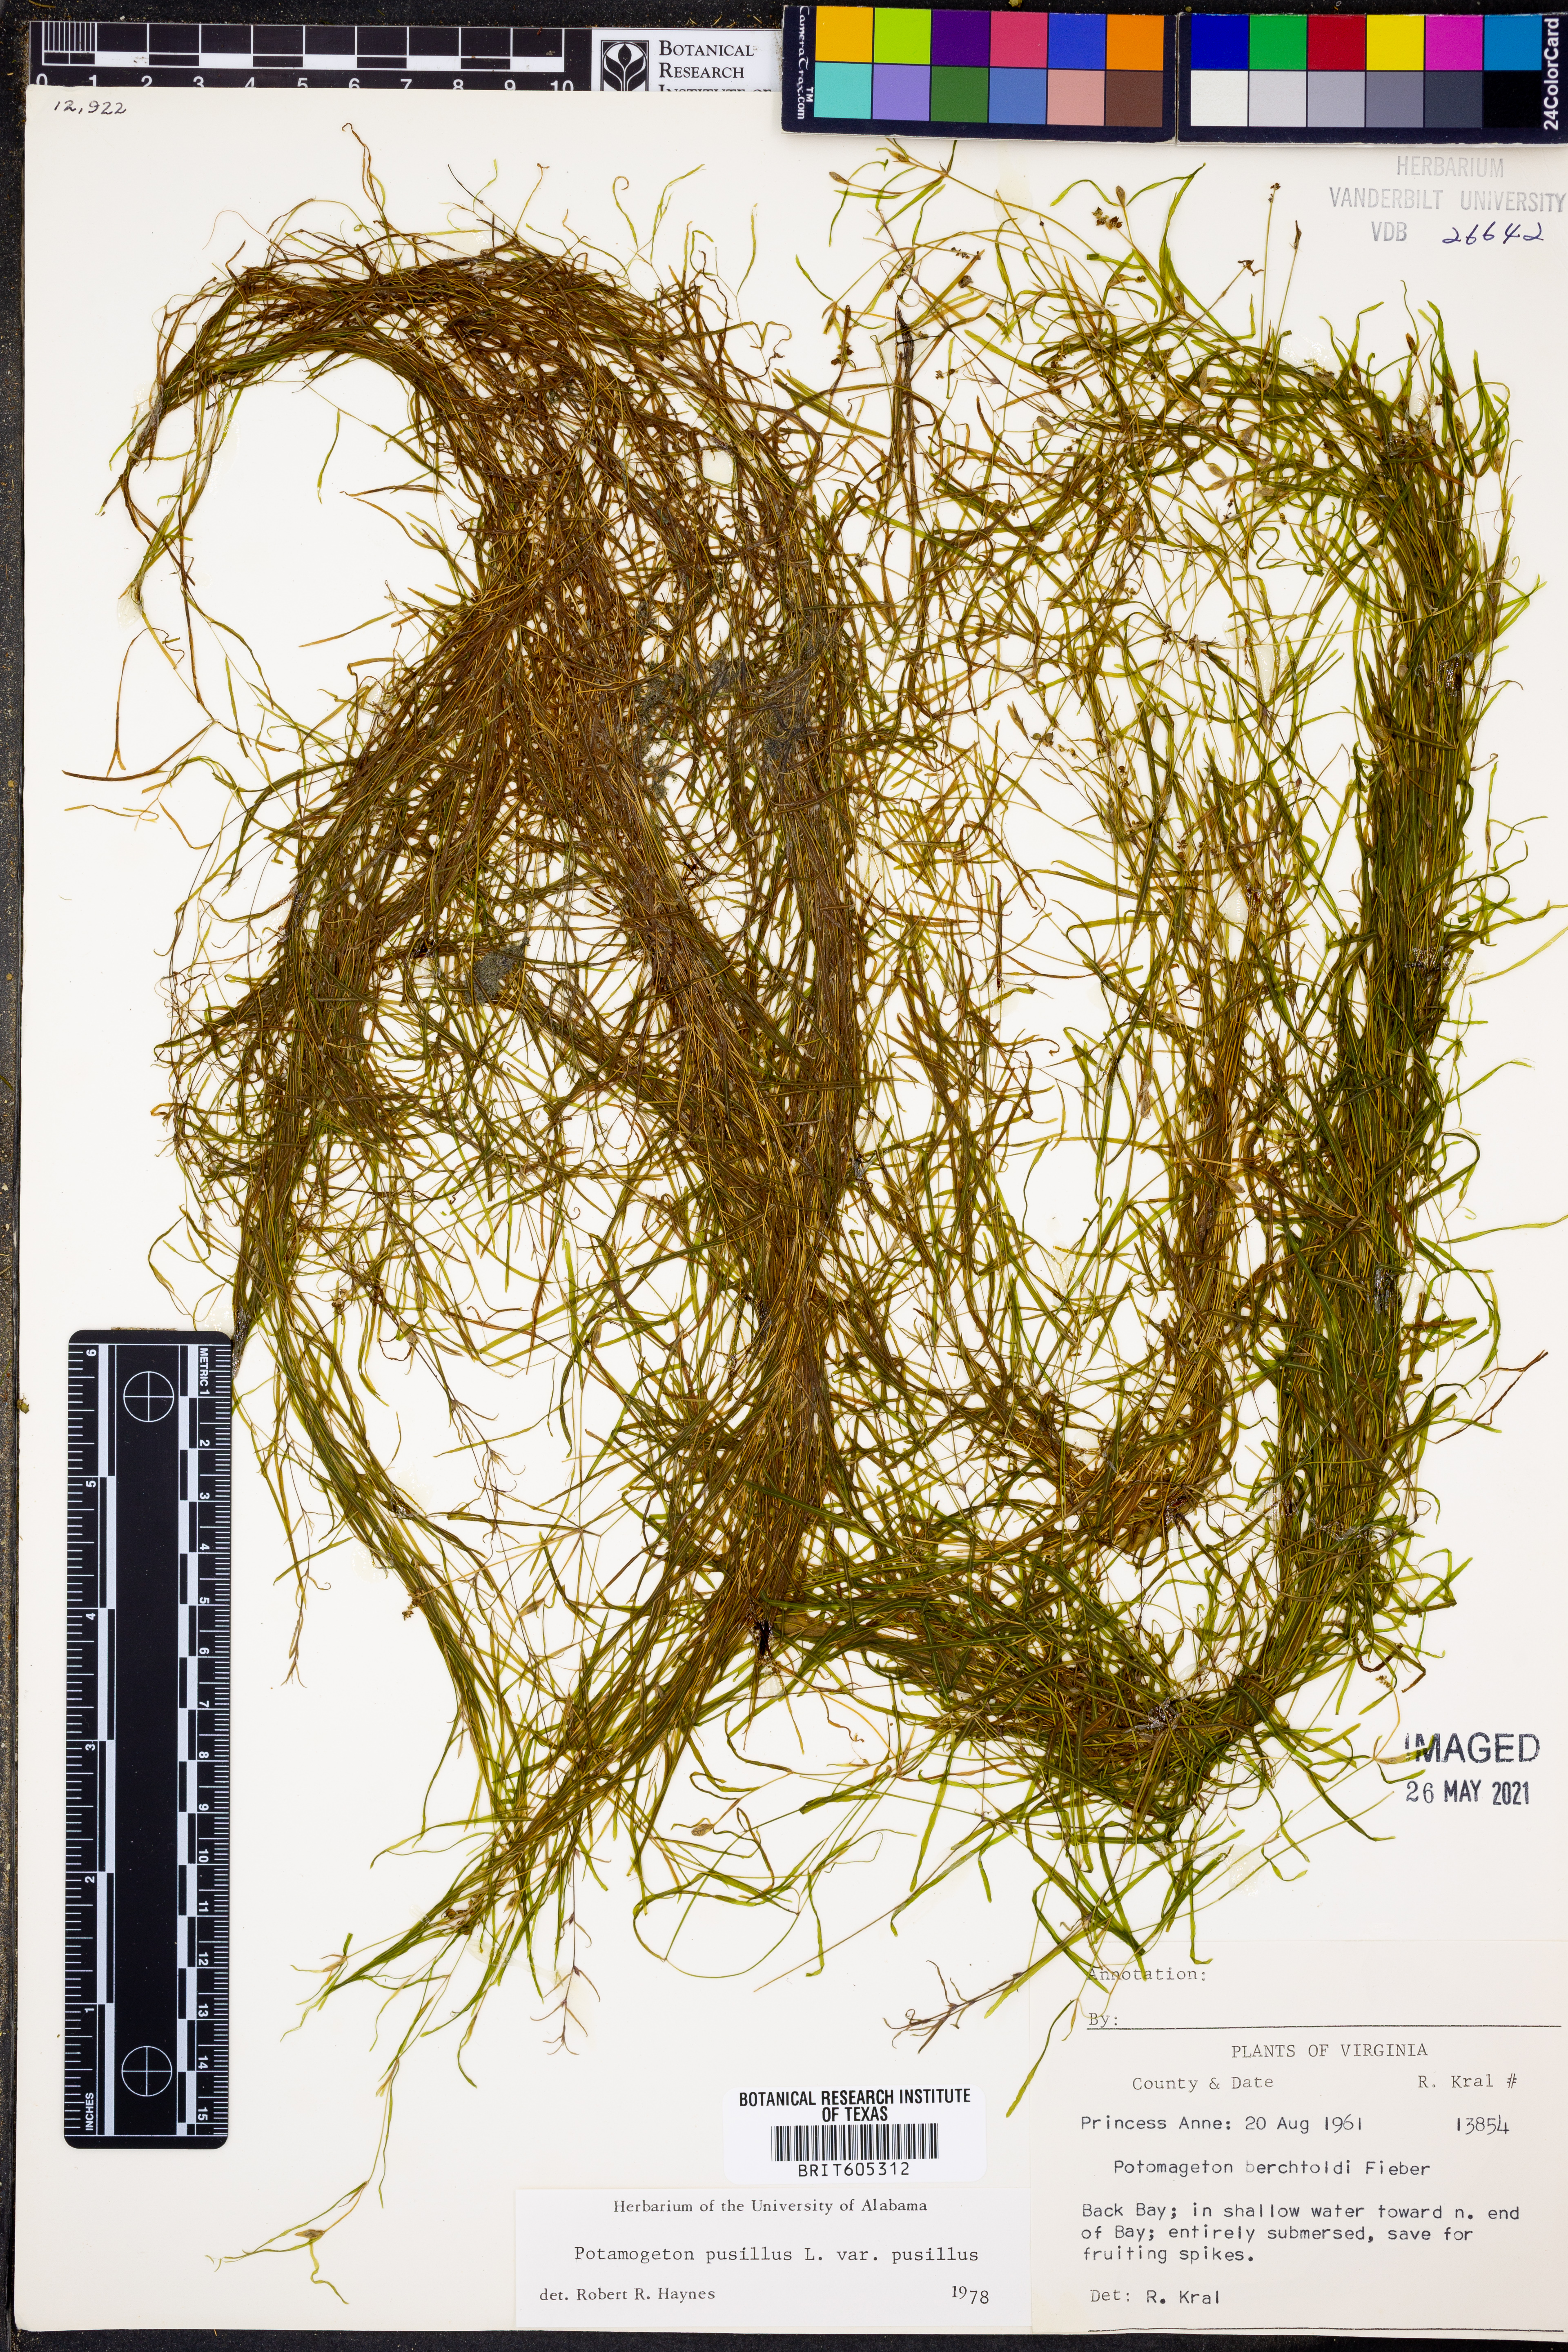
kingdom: Plantae
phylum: Tracheophyta
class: Liliopsida
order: Alismatales
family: Potamogetonaceae
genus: Potamogeton
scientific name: Potamogeton pusillus
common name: Lesser pondweed
